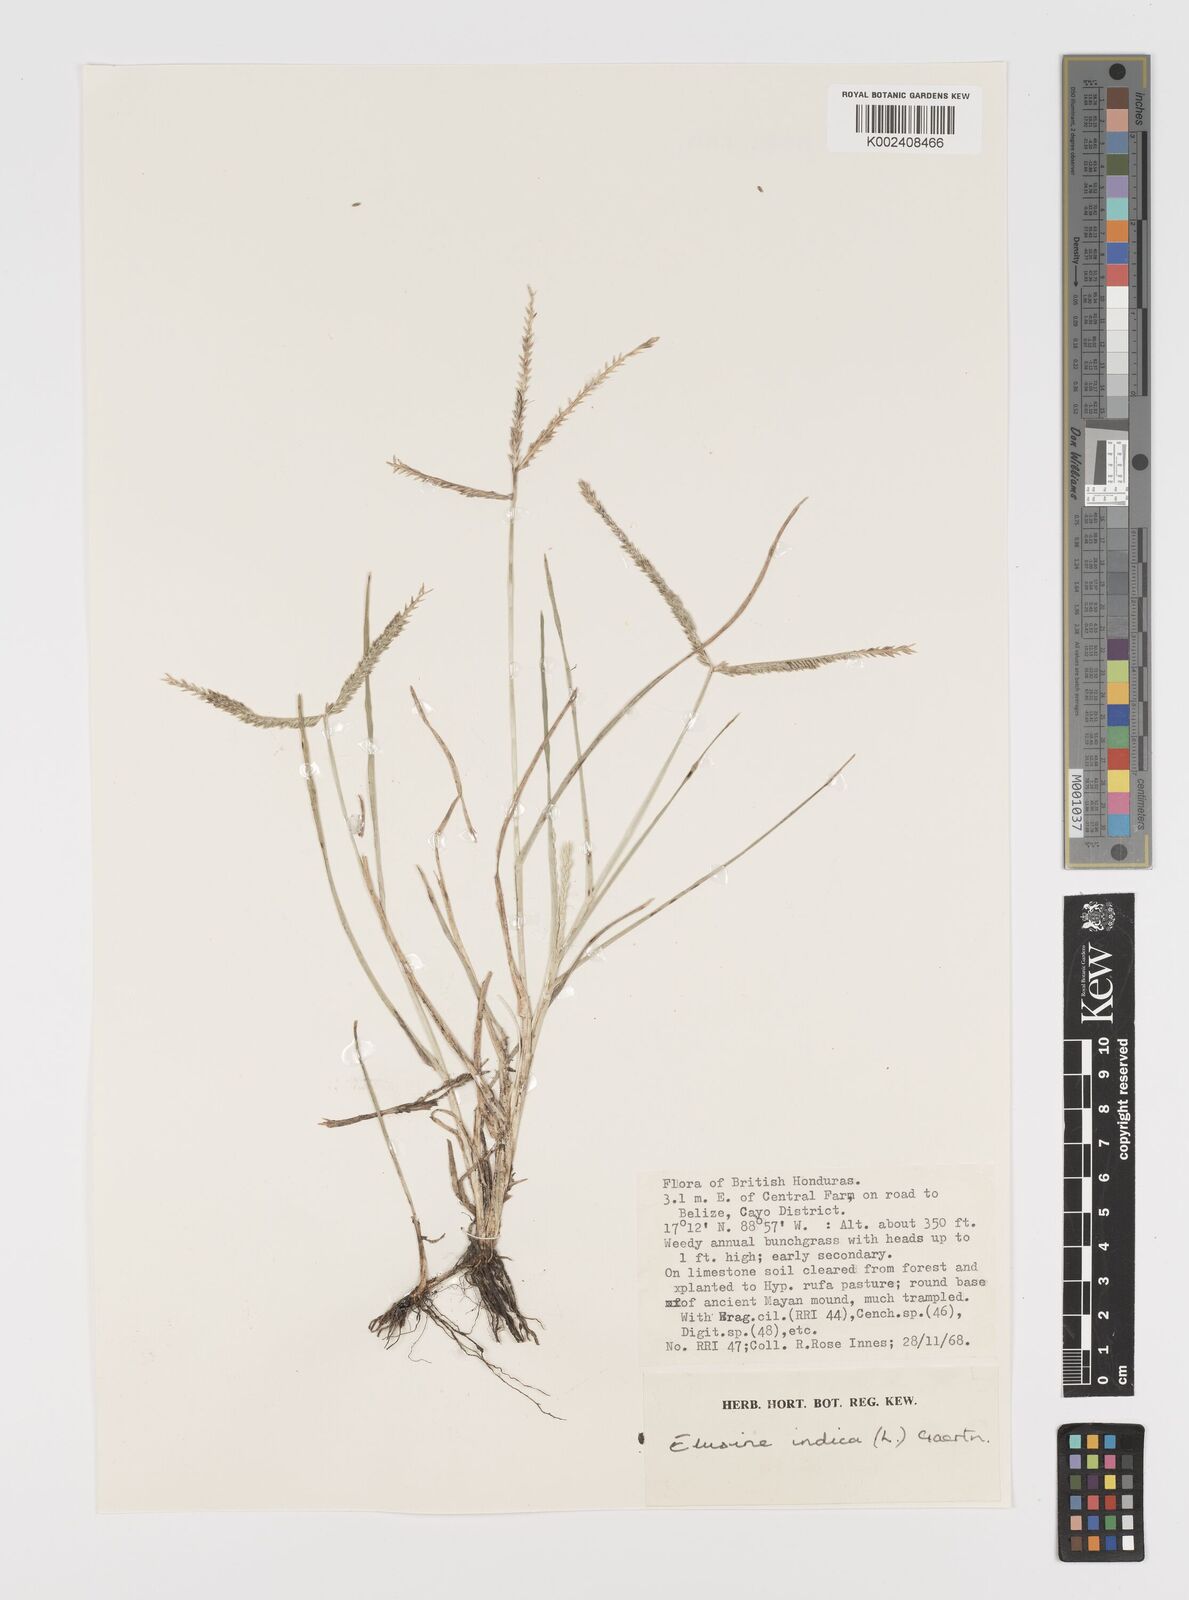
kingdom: Plantae
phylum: Tracheophyta
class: Liliopsida
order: Poales
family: Poaceae
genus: Eleusine
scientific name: Eleusine indica
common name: Yard-grass
